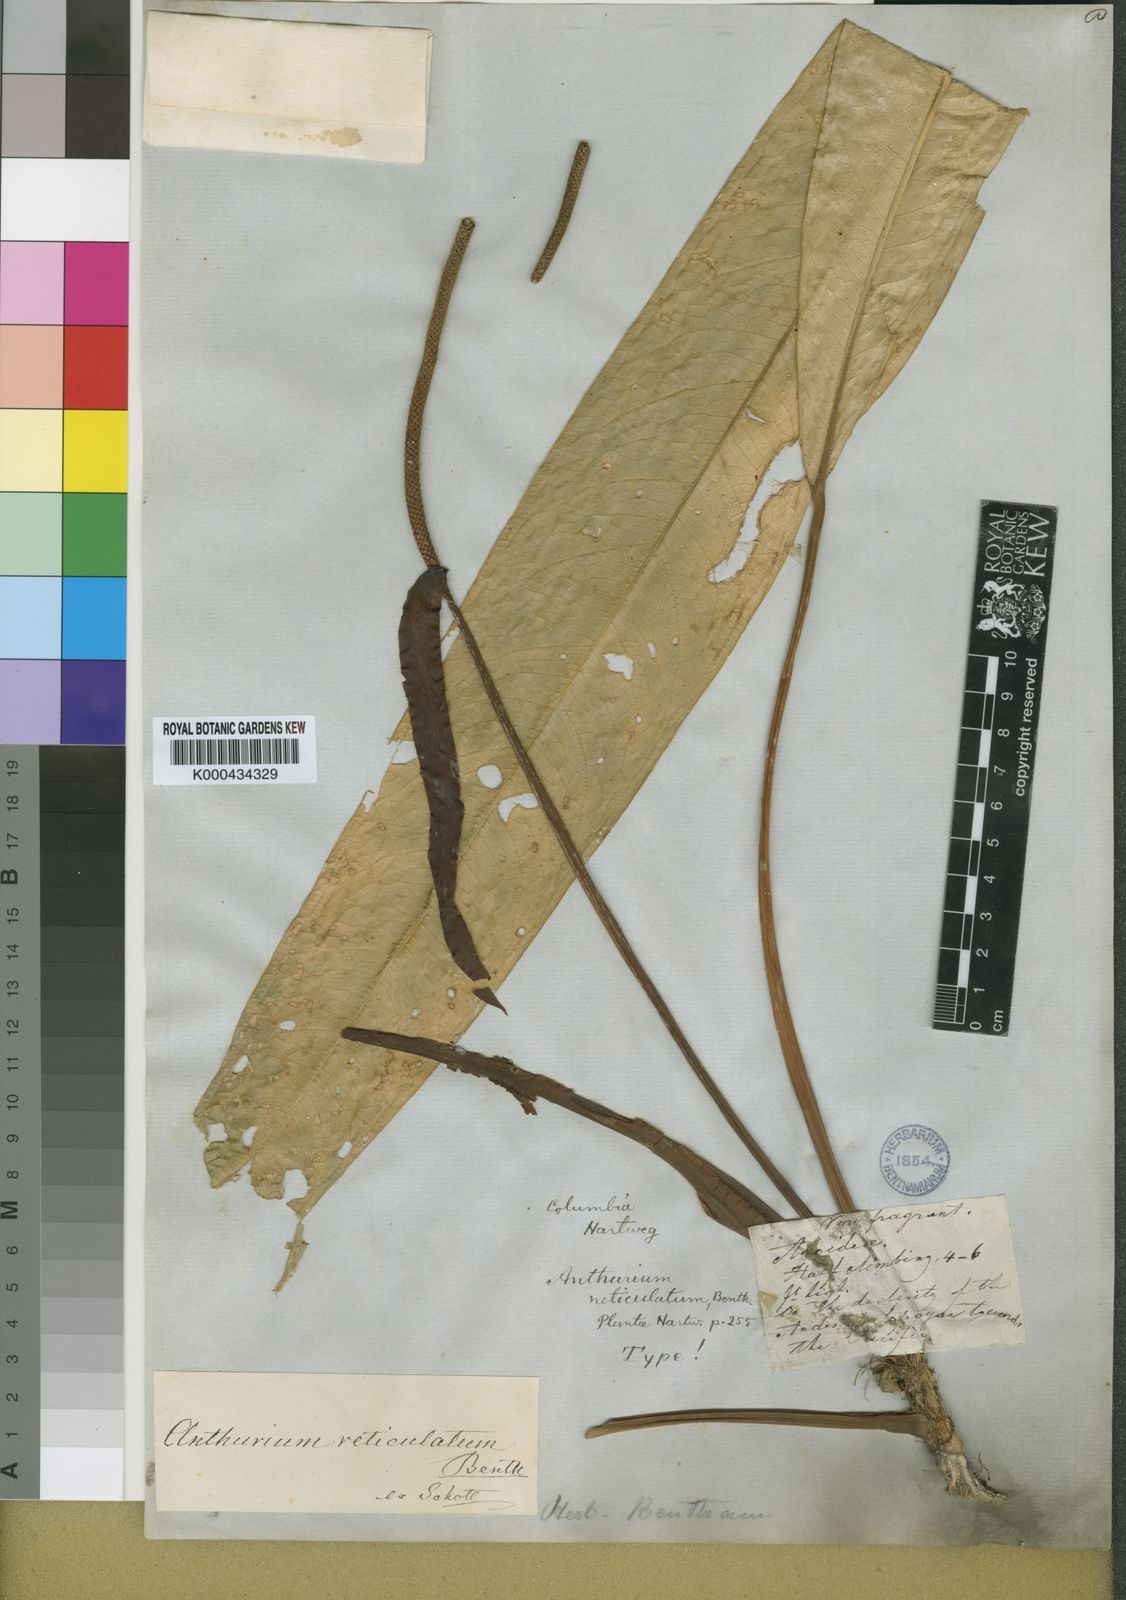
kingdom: Plantae
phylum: Tracheophyta
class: Liliopsida
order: Alismatales
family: Araceae
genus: Anthurium
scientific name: Anthurium reticulatum
